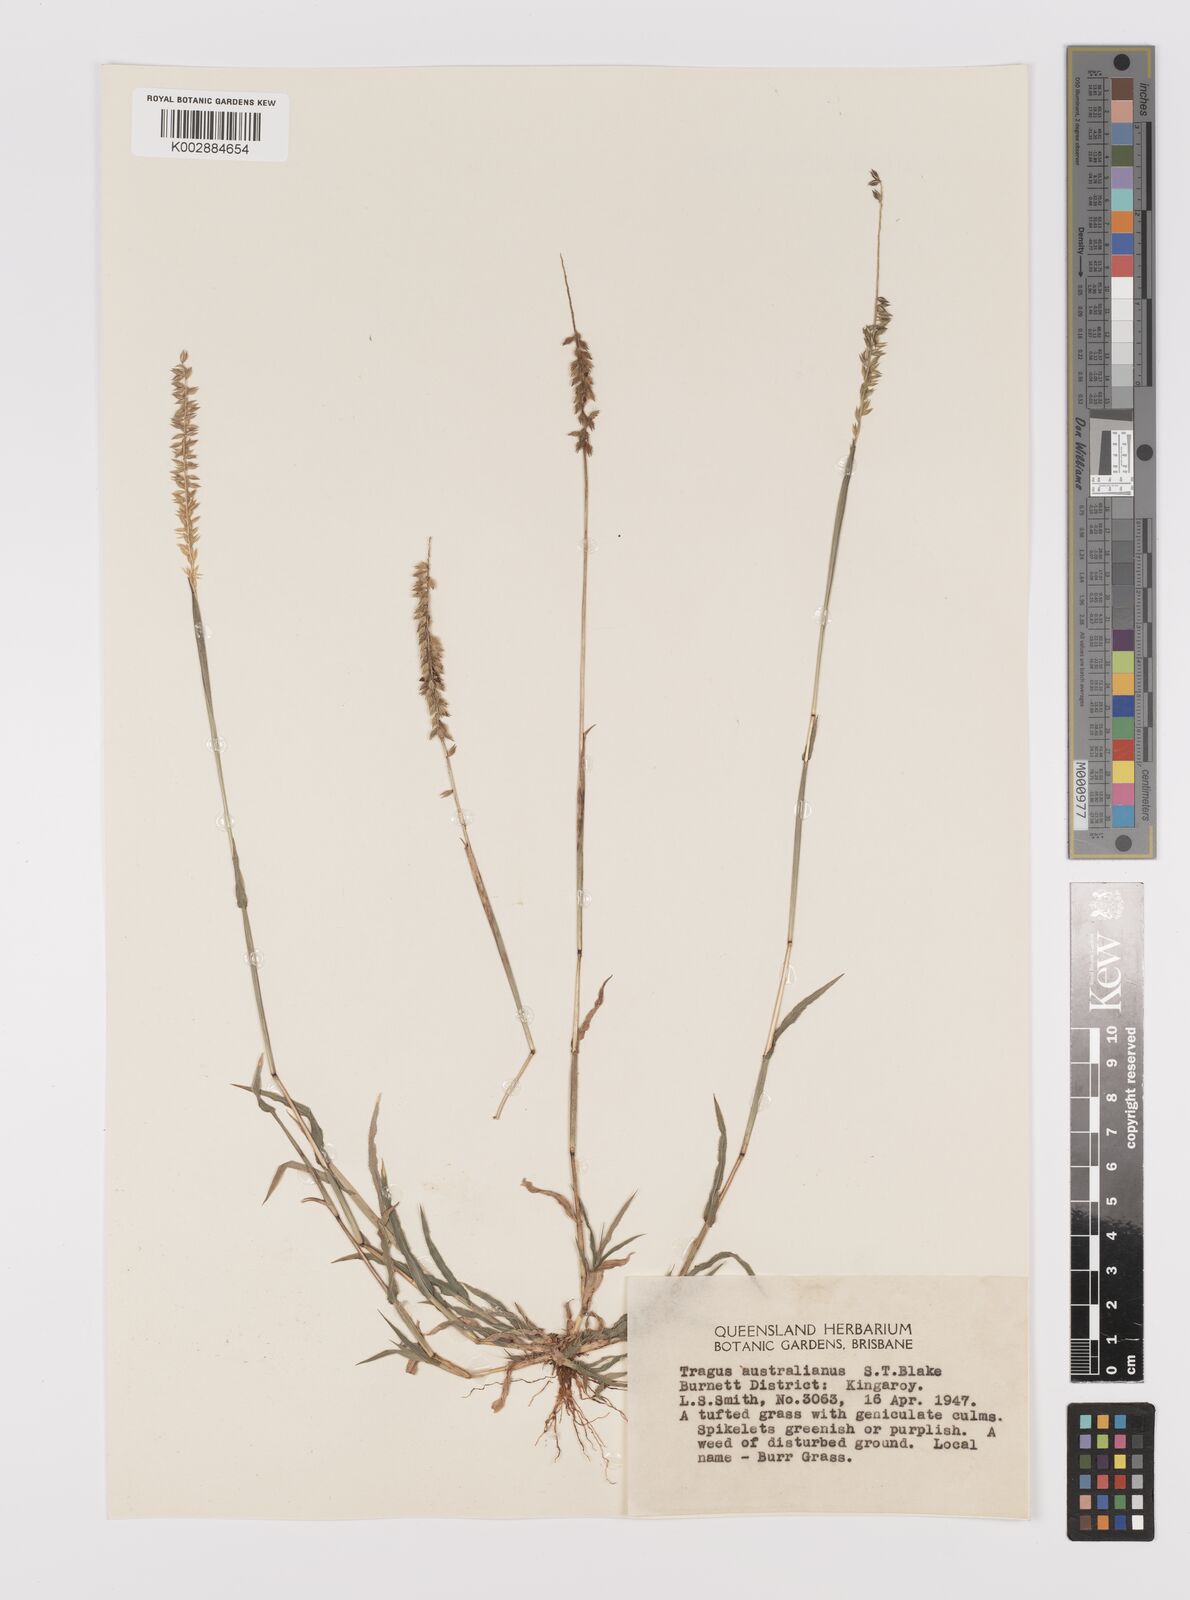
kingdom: Plantae
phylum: Tracheophyta
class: Liliopsida
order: Poales
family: Poaceae
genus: Tragus
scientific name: Tragus australianus
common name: Australian bur-grass
